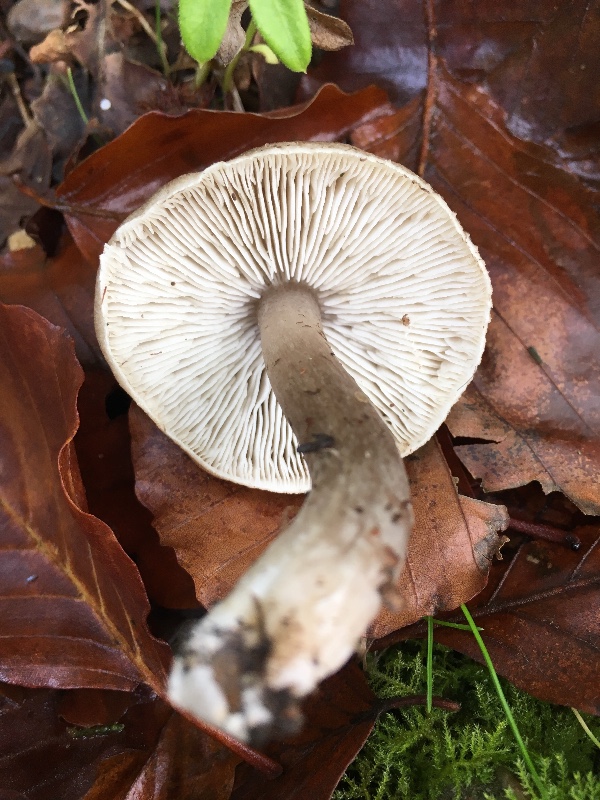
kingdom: Fungi
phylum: Basidiomycota
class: Agaricomycetes
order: Agaricales
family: Tricholomataceae
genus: Tricholoma
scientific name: Tricholoma scalpturatum
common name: gulplettet ridderhat
